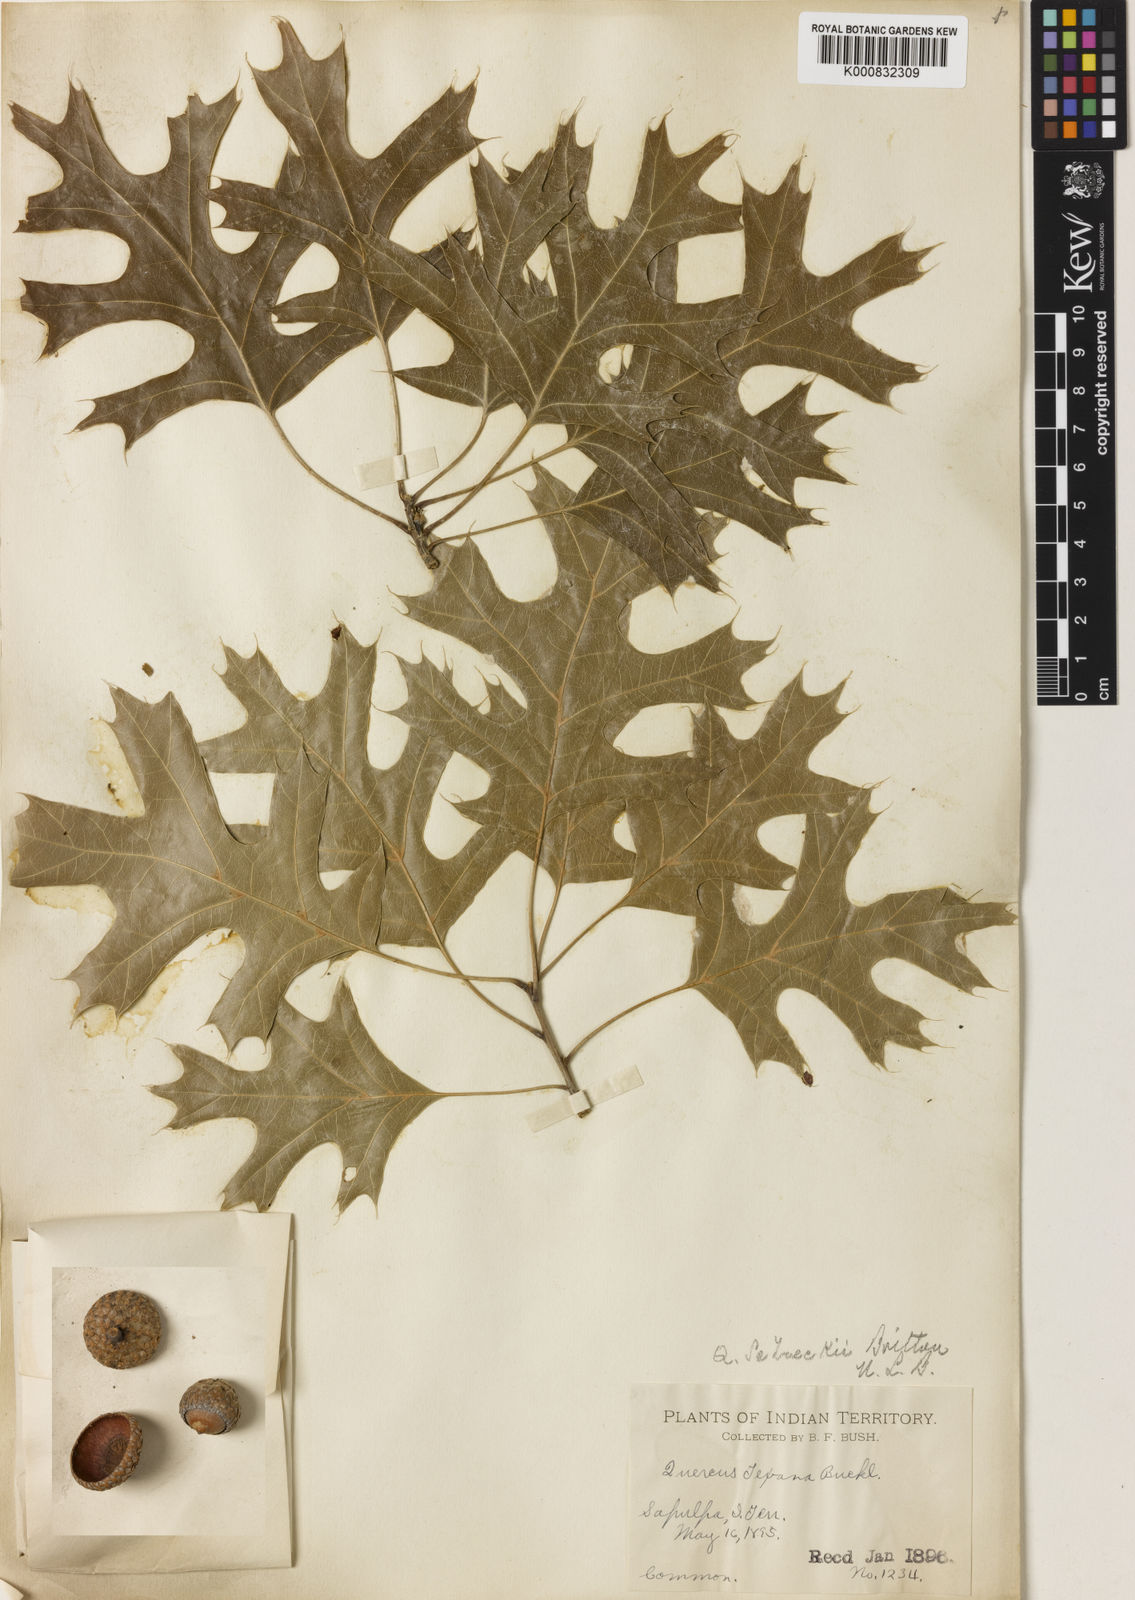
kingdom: Plantae
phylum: Tracheophyta
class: Magnoliopsida
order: Fagales
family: Fagaceae
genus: Quercus
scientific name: Quercus shumardii
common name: Shumard oak
